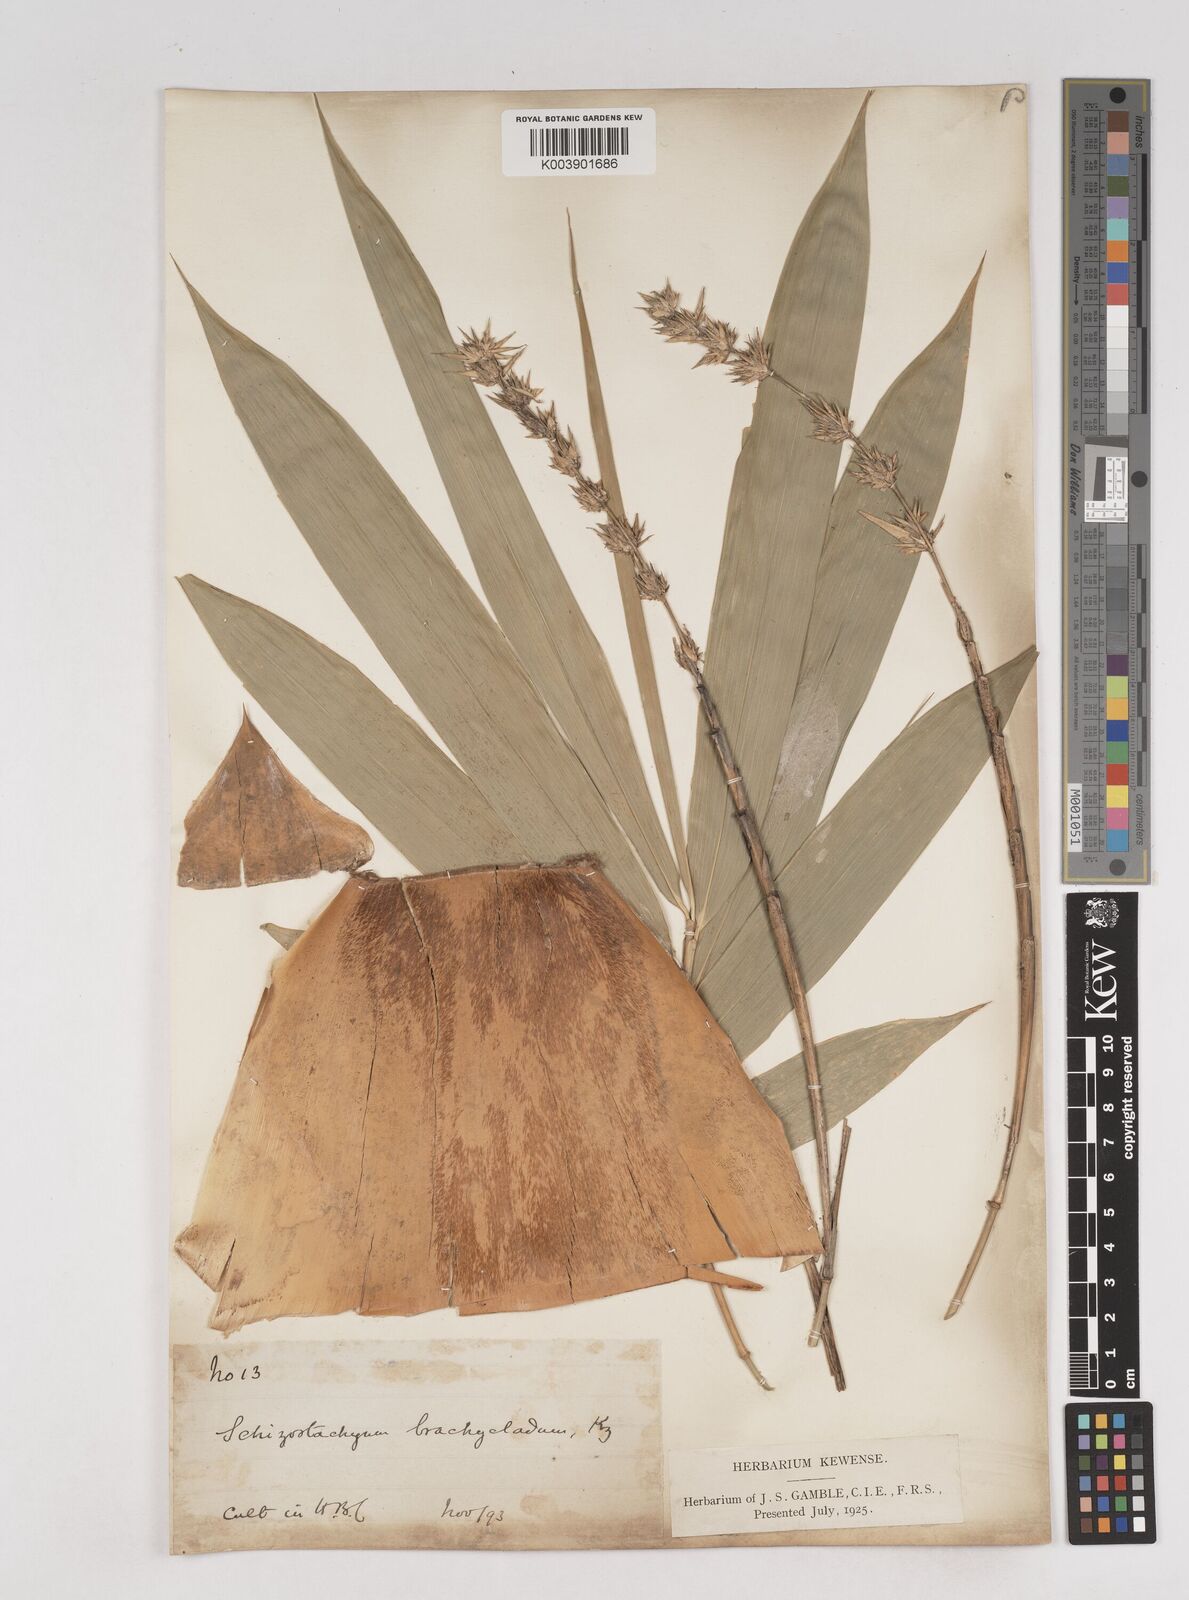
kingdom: Plantae
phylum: Tracheophyta
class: Liliopsida
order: Poales
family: Poaceae
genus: Schizostachyum
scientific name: Schizostachyum brachycladum
